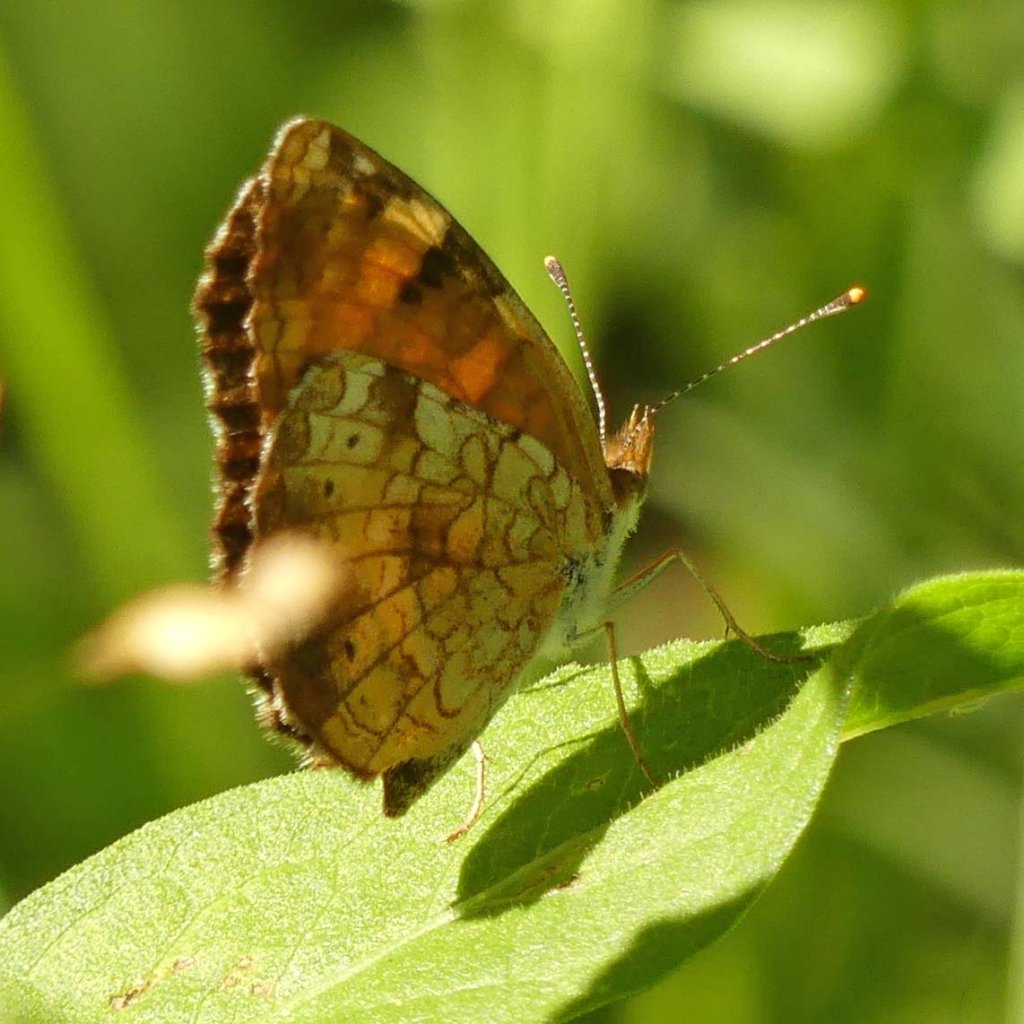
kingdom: Animalia
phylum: Arthropoda
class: Insecta
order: Lepidoptera
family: Nymphalidae
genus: Phyciodes
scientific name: Phyciodes tharos
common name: Northern Crescent
